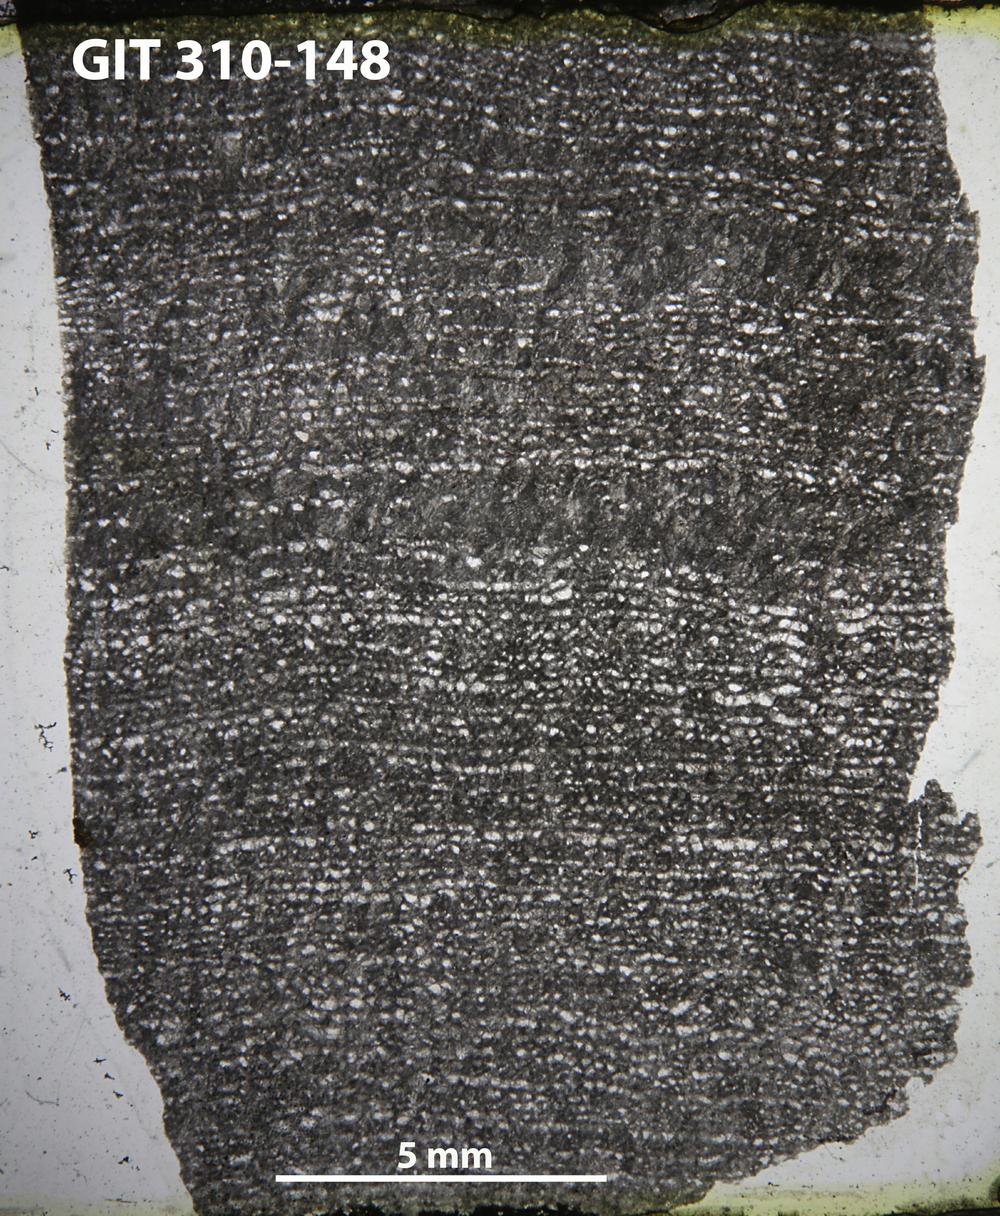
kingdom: Animalia
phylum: Porifera
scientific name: Porifera
